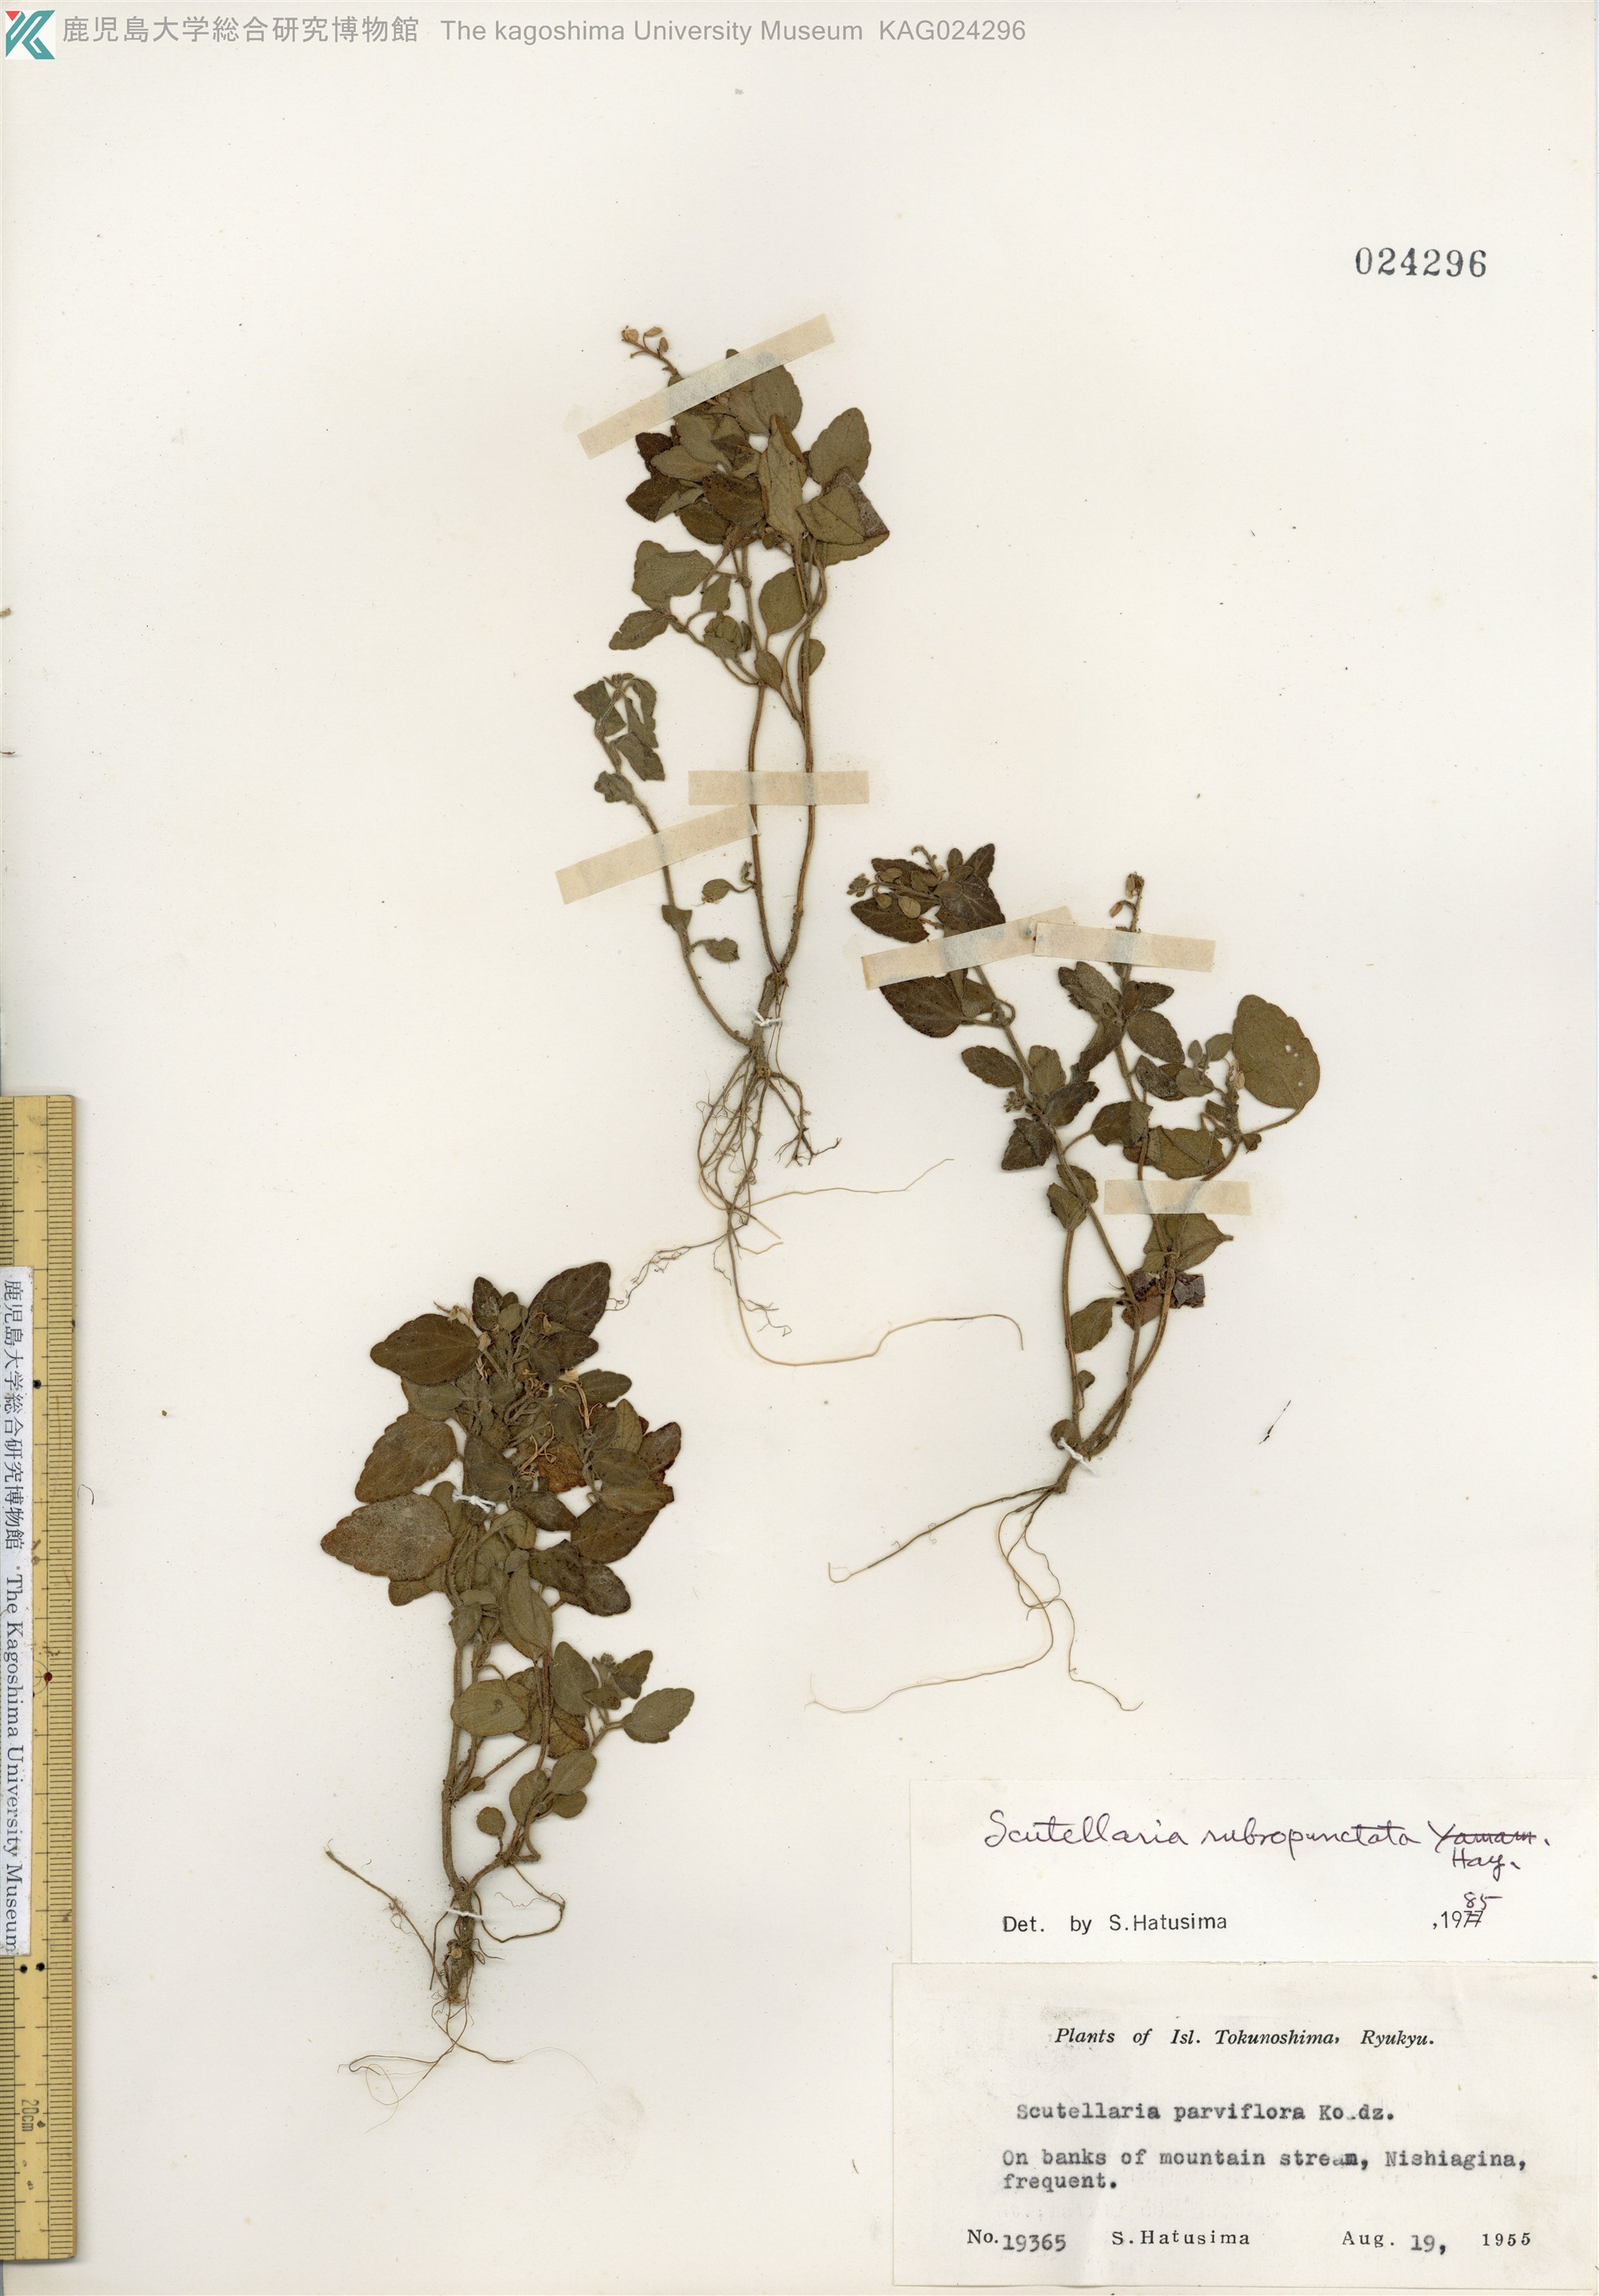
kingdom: Plantae
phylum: Tracheophyta
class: Magnoliopsida
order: Lamiales
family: Lamiaceae
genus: Scutellaria
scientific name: Scutellaria rubropunctata
